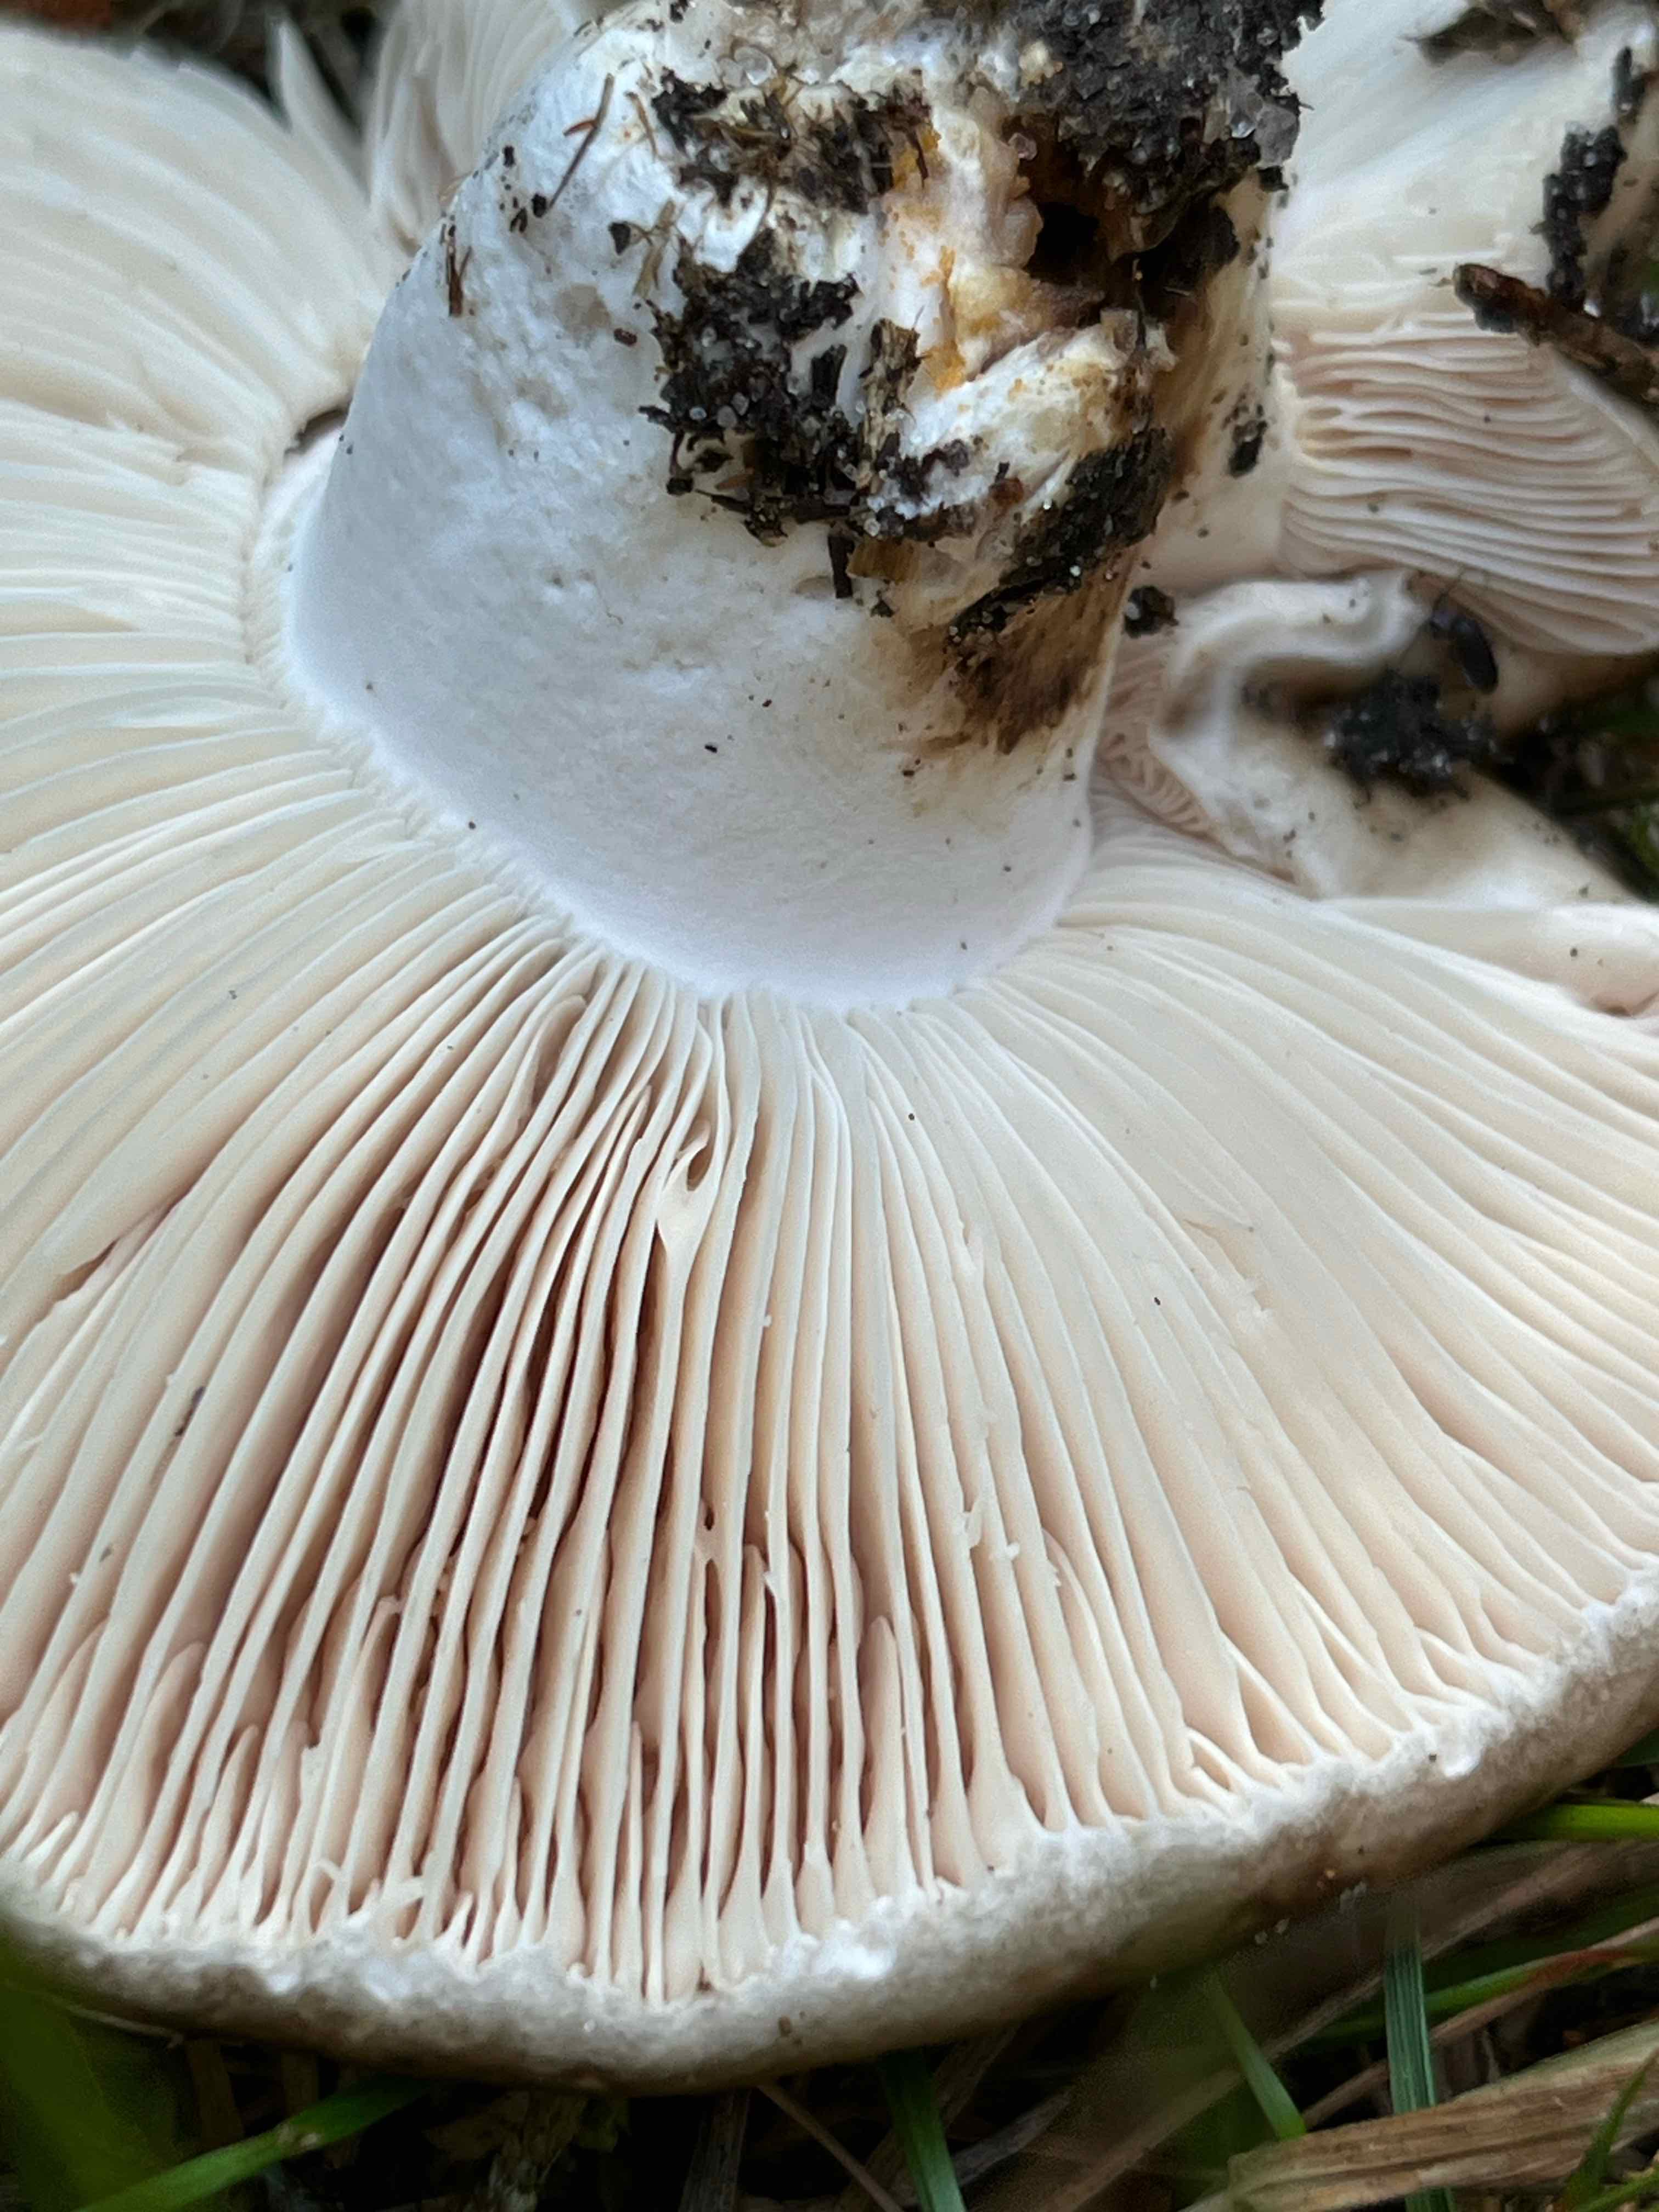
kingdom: Fungi
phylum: Basidiomycota
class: Agaricomycetes
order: Russulales
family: Russulaceae
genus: Russula
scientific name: Russula adusta
